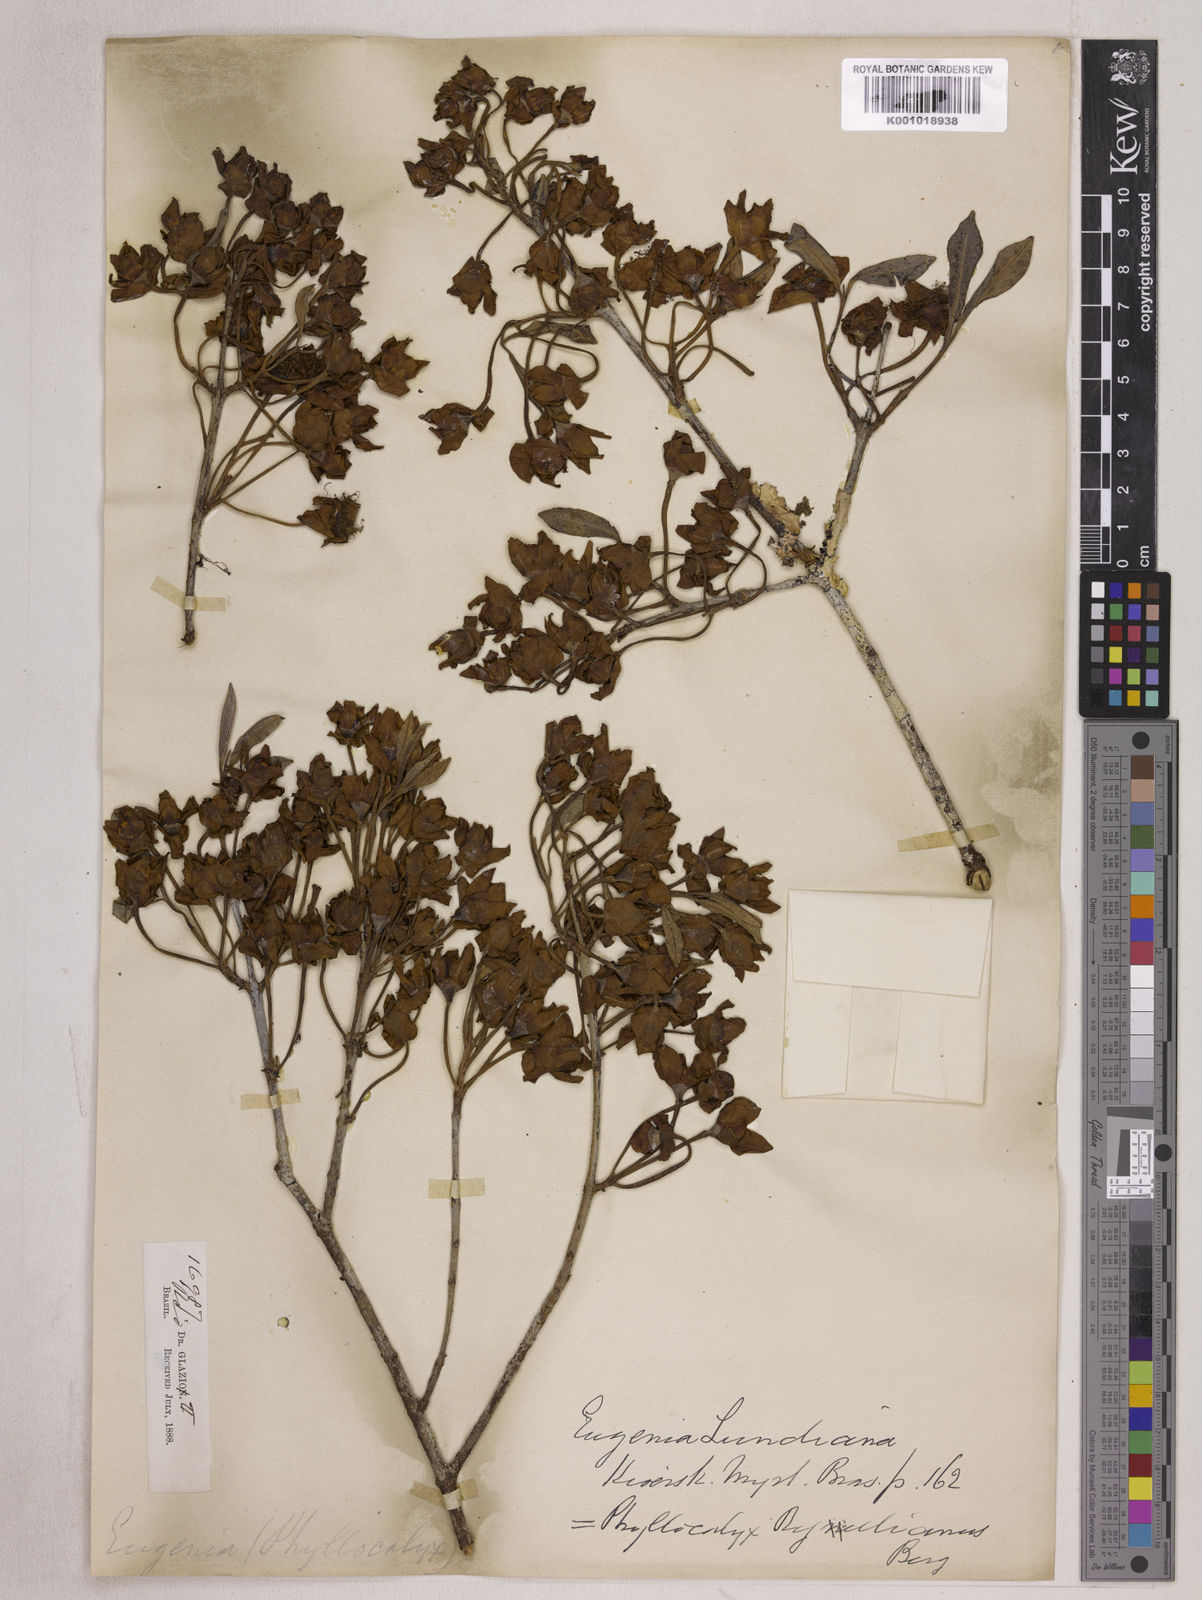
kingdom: Plantae
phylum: Tracheophyta
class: Magnoliopsida
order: Myrtales
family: Myrtaceae
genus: Eugenia
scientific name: Eugenia calycina
